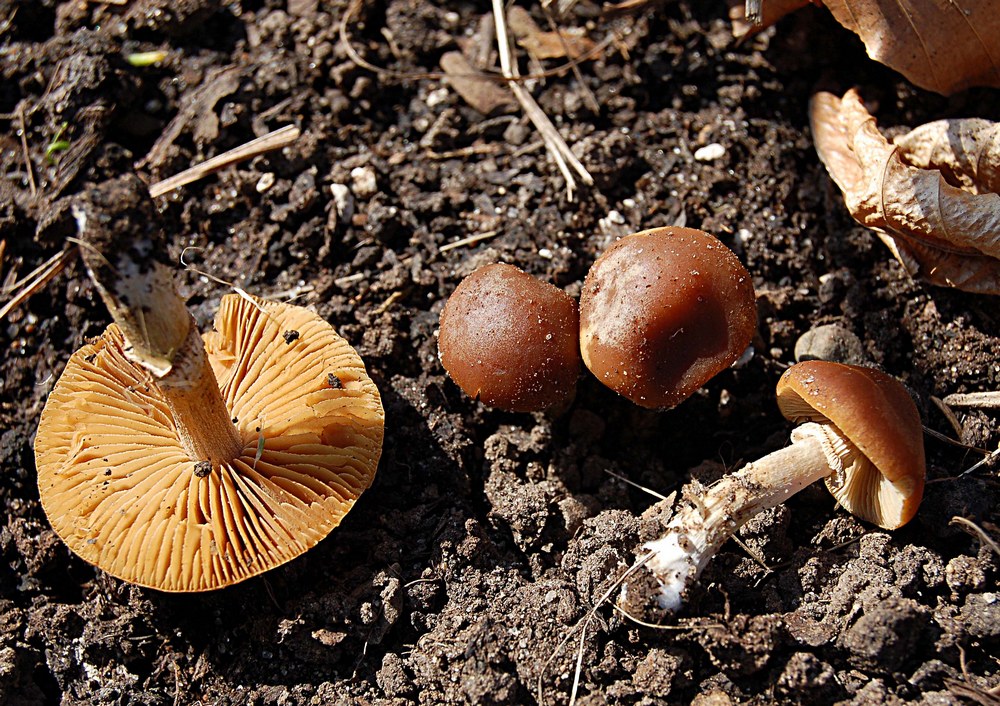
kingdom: Fungi
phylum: Basidiomycota
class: Agaricomycetes
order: Agaricales
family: Bolbitiaceae
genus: Conocybe
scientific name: Conocybe aporos
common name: tidlig dansehat
